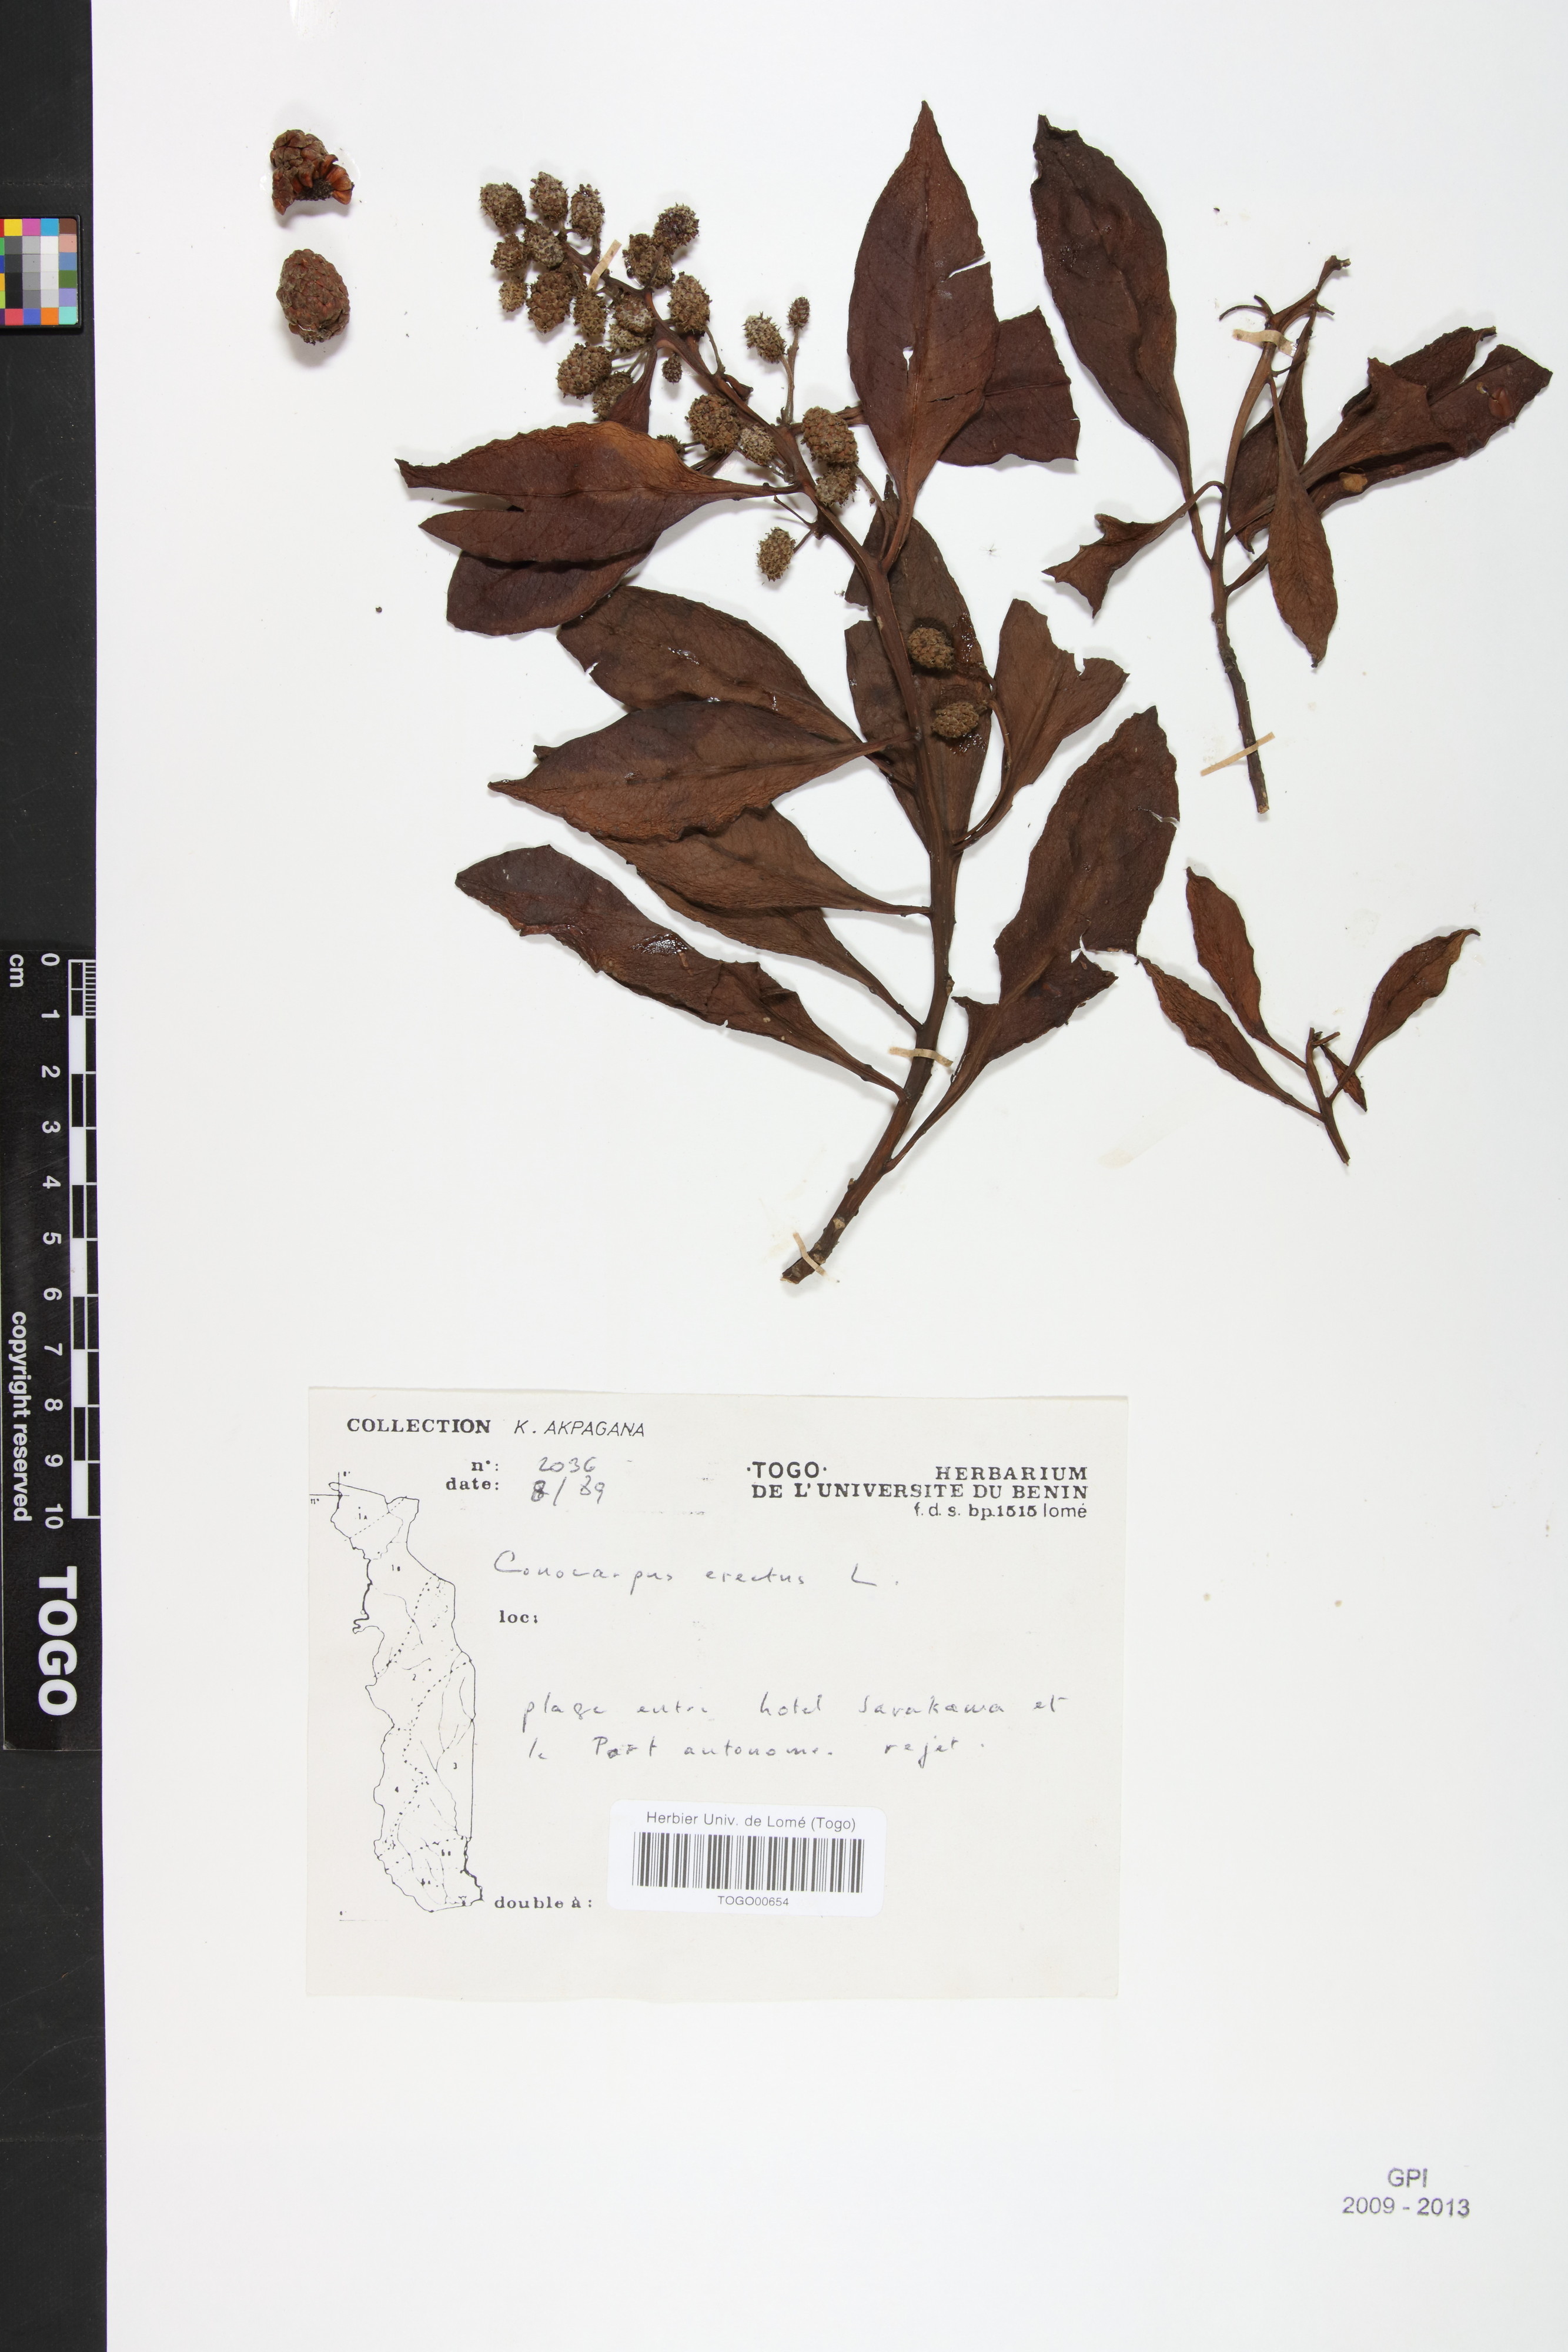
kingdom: Plantae
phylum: Tracheophyta
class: Magnoliopsida
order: Myrtales
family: Combretaceae
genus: Conocarpus
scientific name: Conocarpus erectus
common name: Button mangrove
